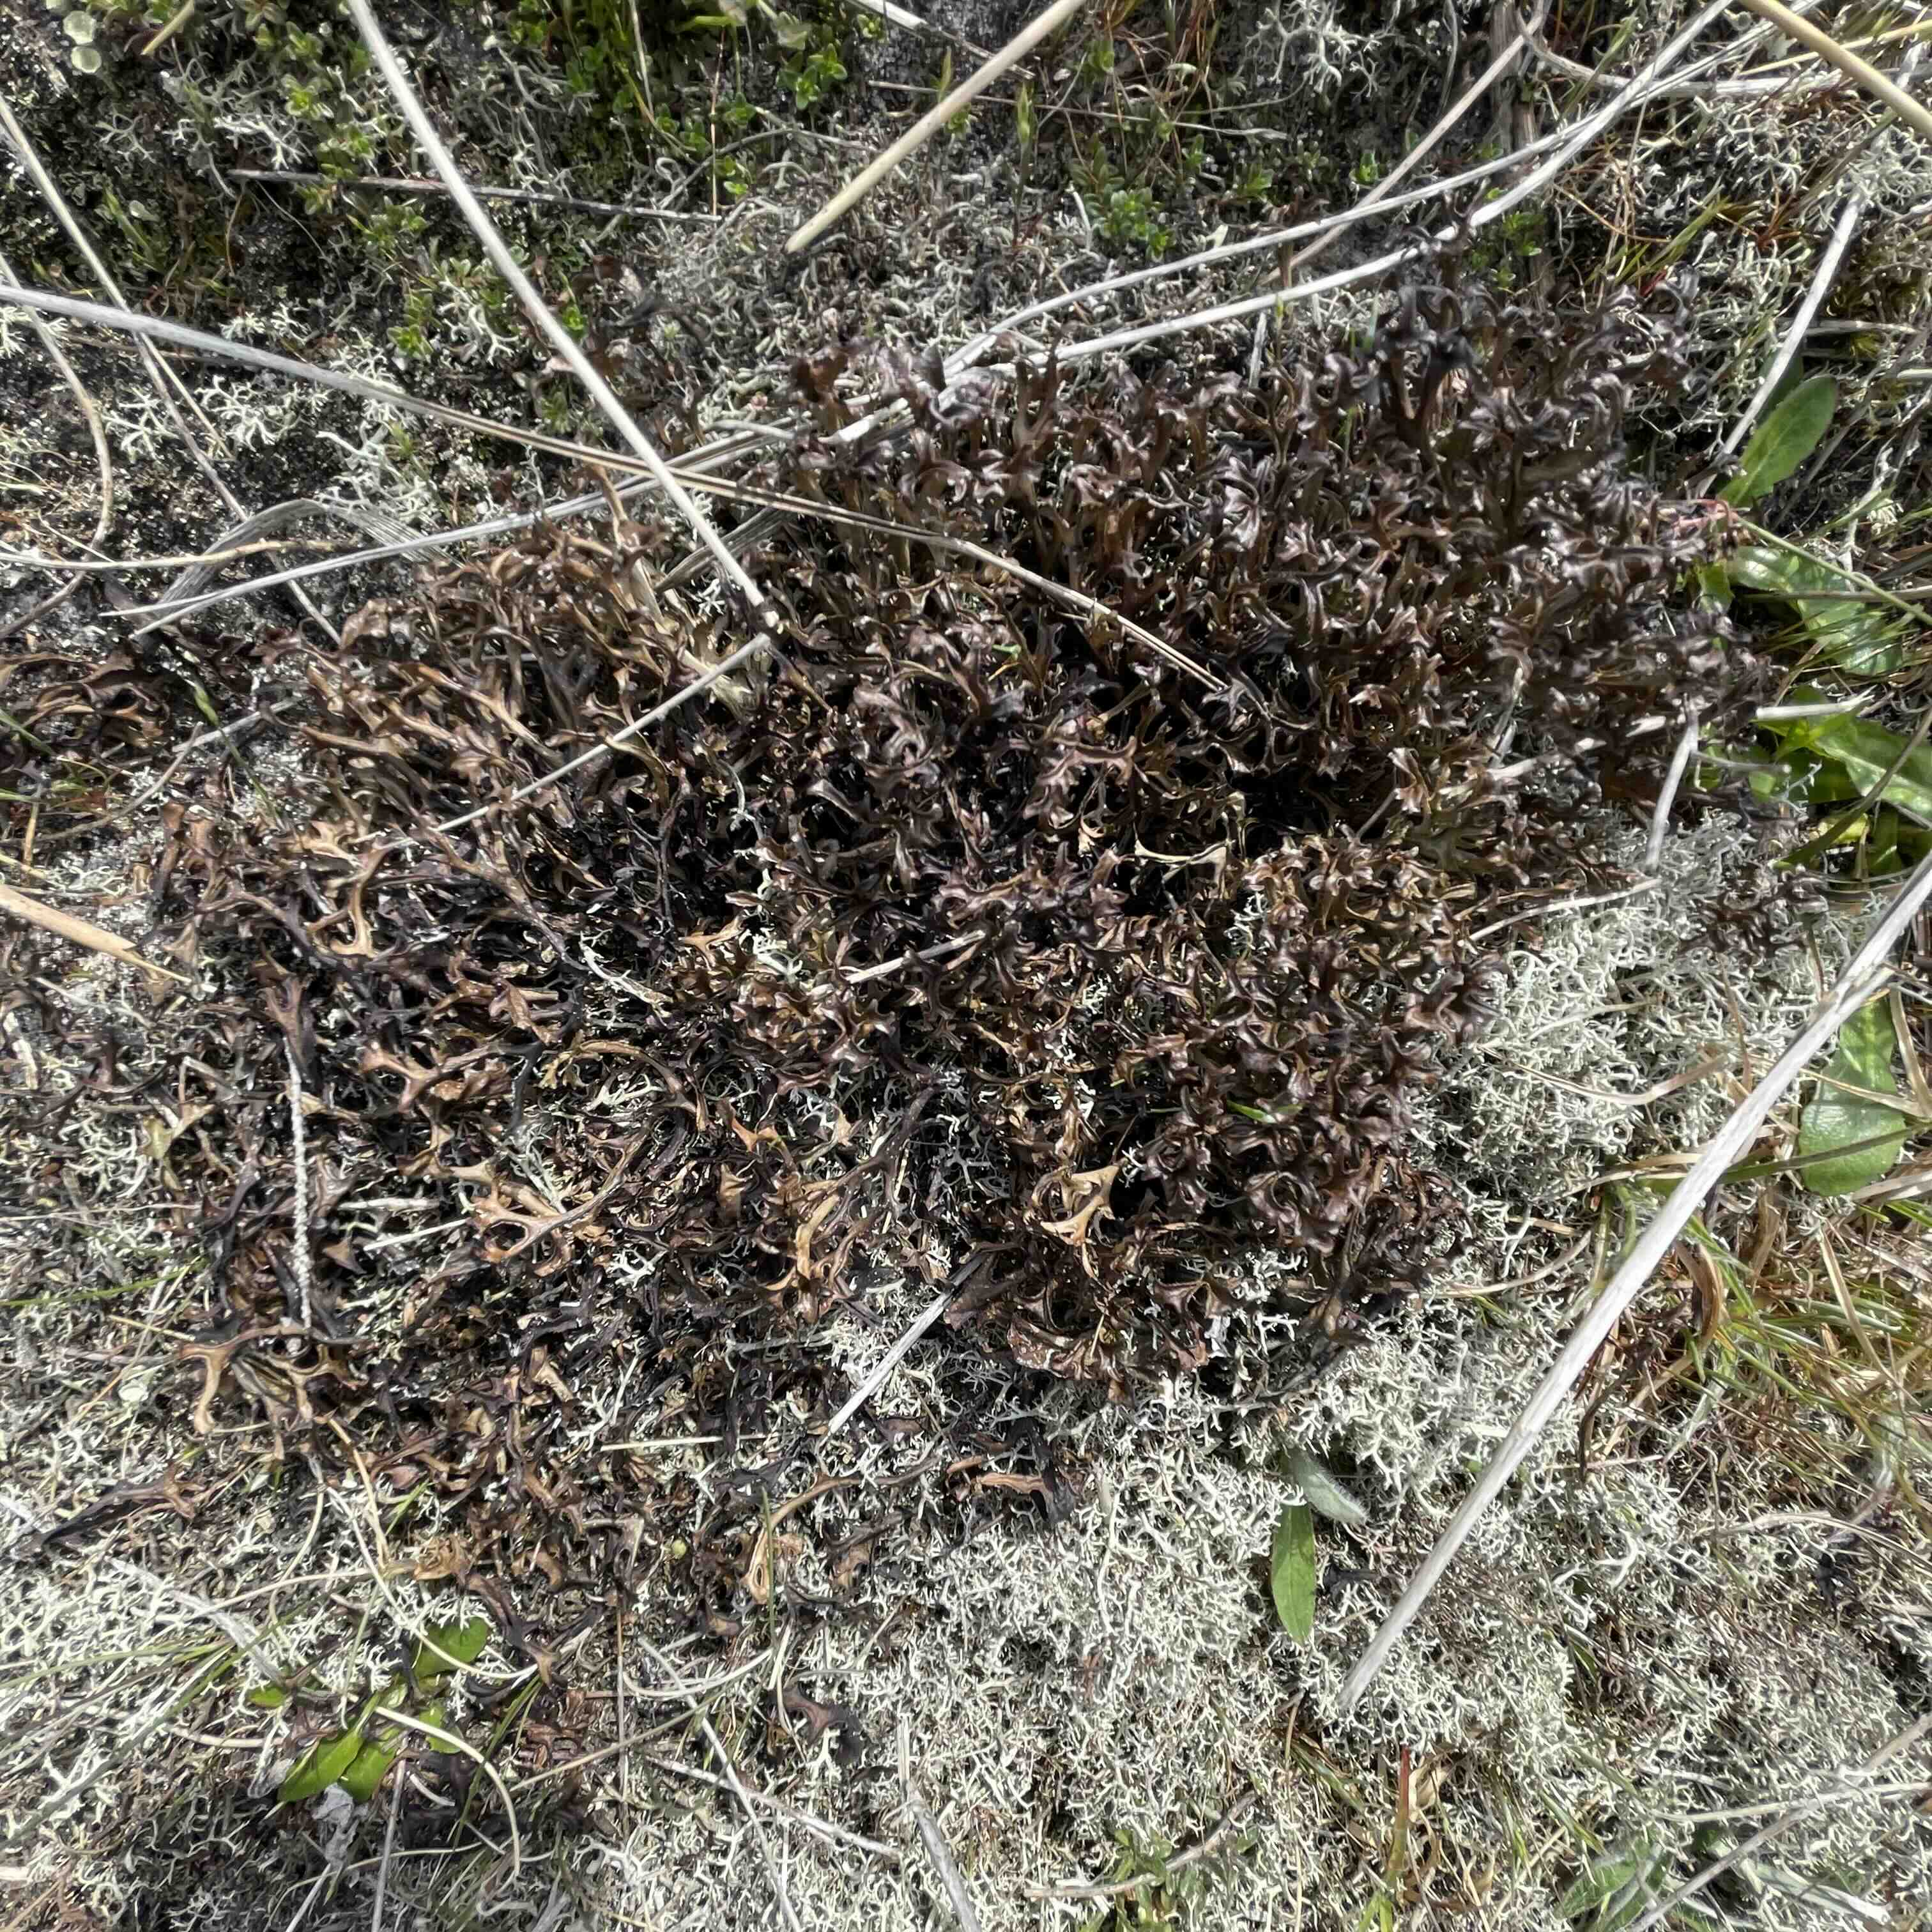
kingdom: Fungi
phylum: Ascomycota
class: Lecanoromycetes
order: Lecanorales
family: Parmeliaceae
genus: Cetraria
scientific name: Cetraria islandica
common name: islandsk kruslav
